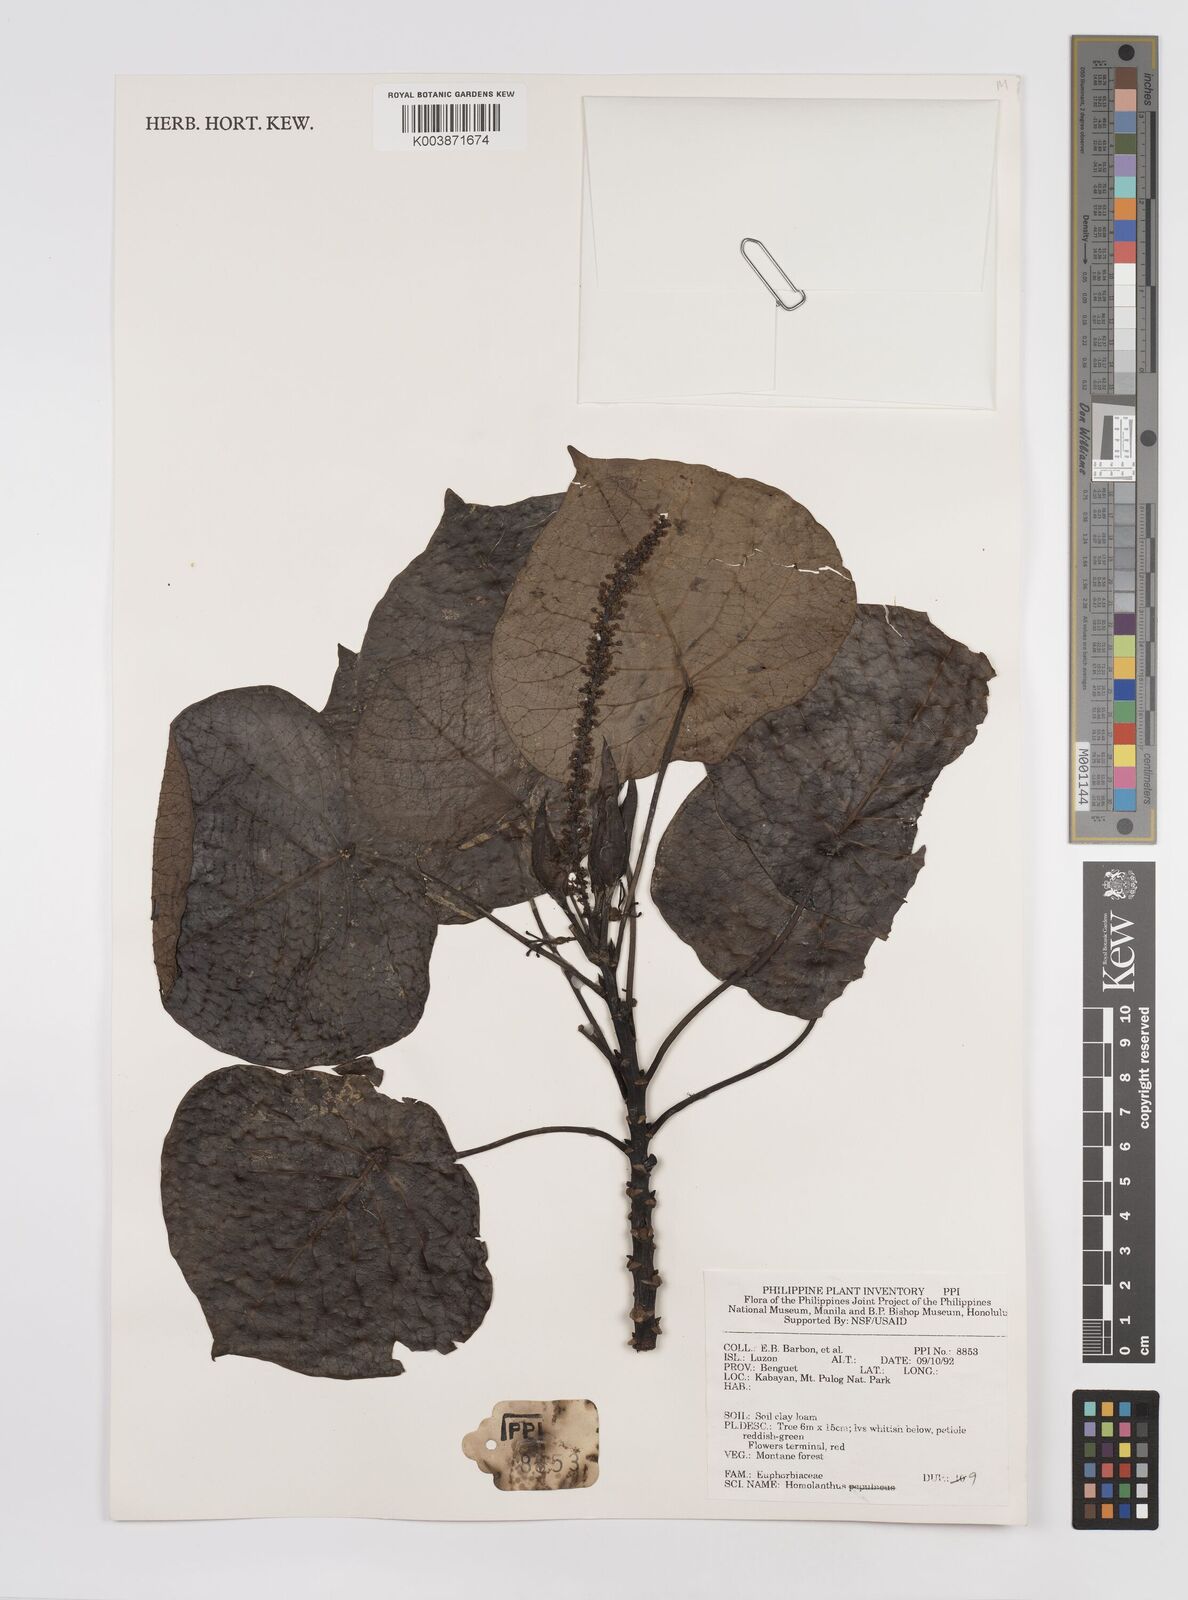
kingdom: Plantae
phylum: Tracheophyta
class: Magnoliopsida
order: Malpighiales
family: Euphorbiaceae
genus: Homalanthus
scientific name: Homalanthus fastuosus
